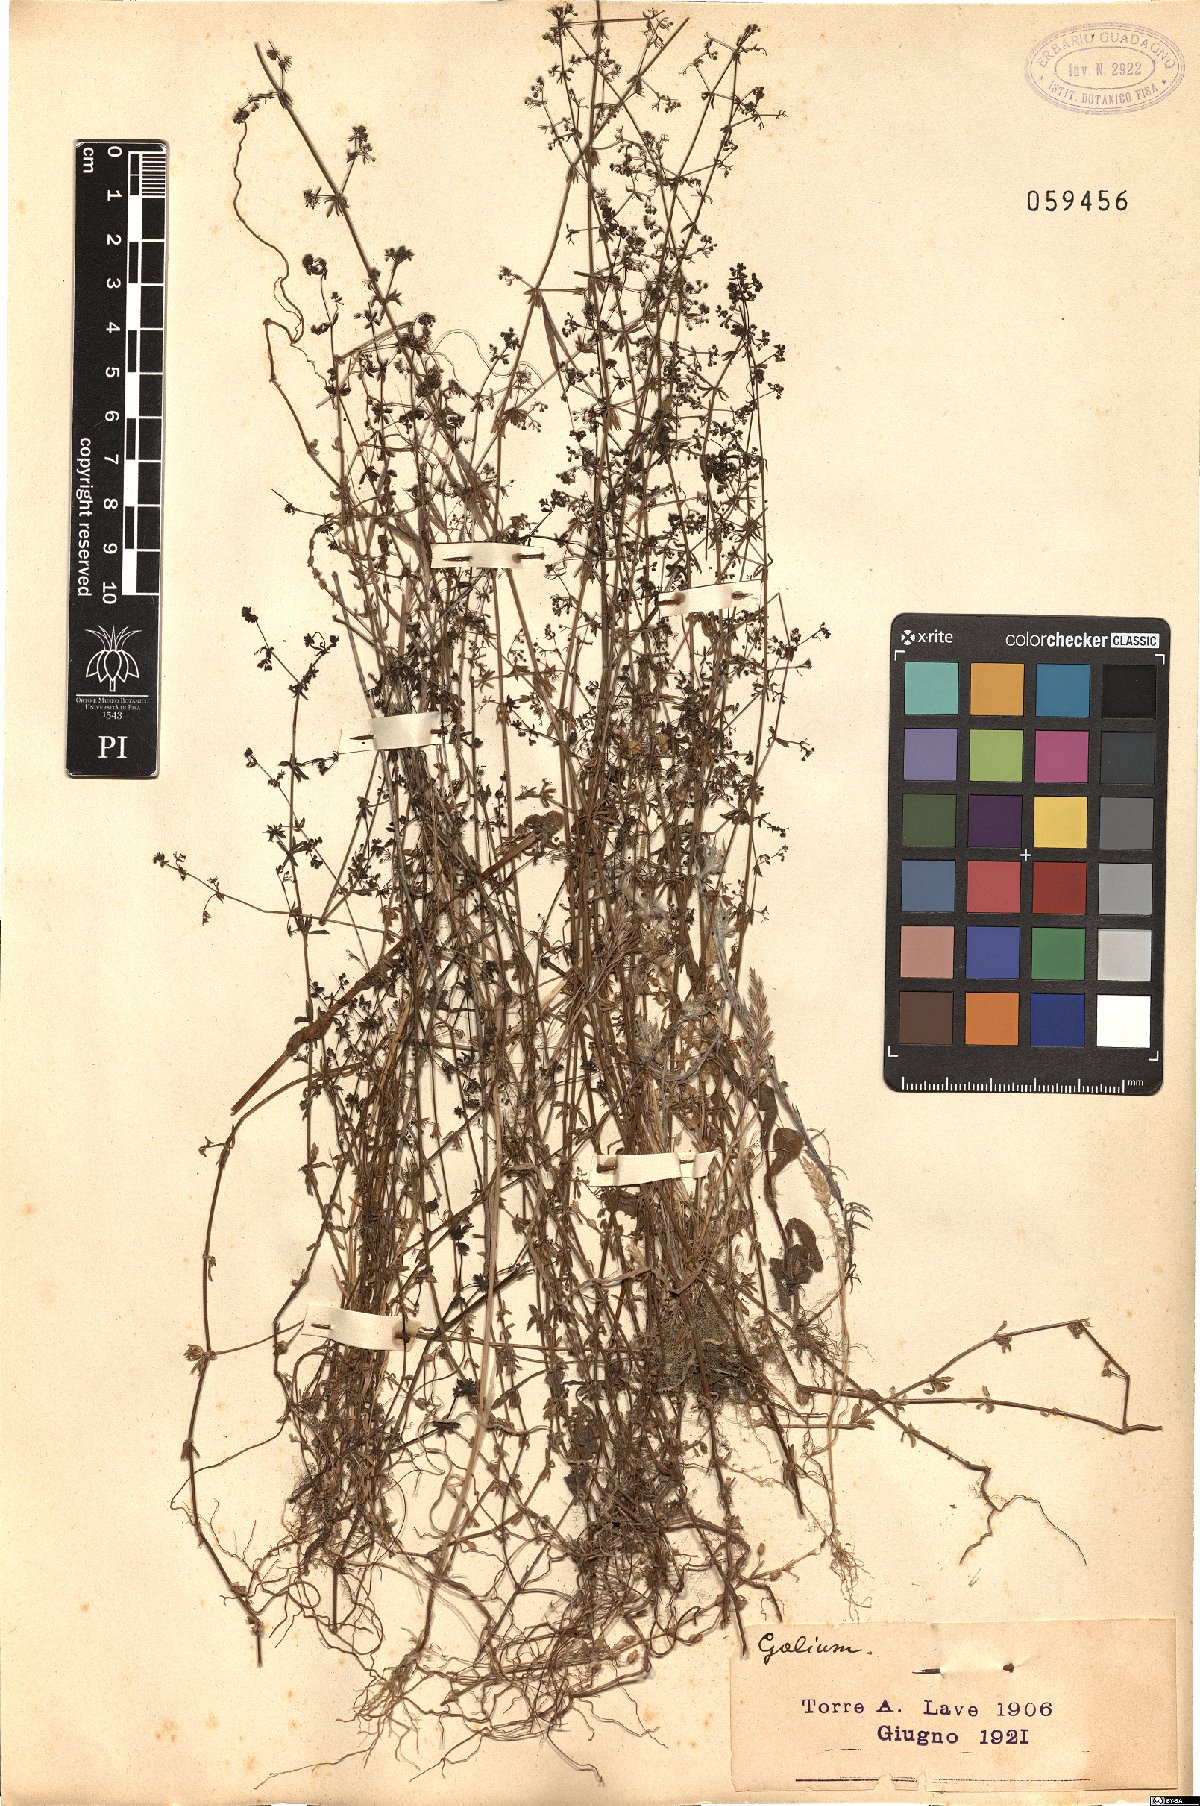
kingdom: Plantae
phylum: Tracheophyta
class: Magnoliopsida
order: Gentianales
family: Rubiaceae
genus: Galium
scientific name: Galium
